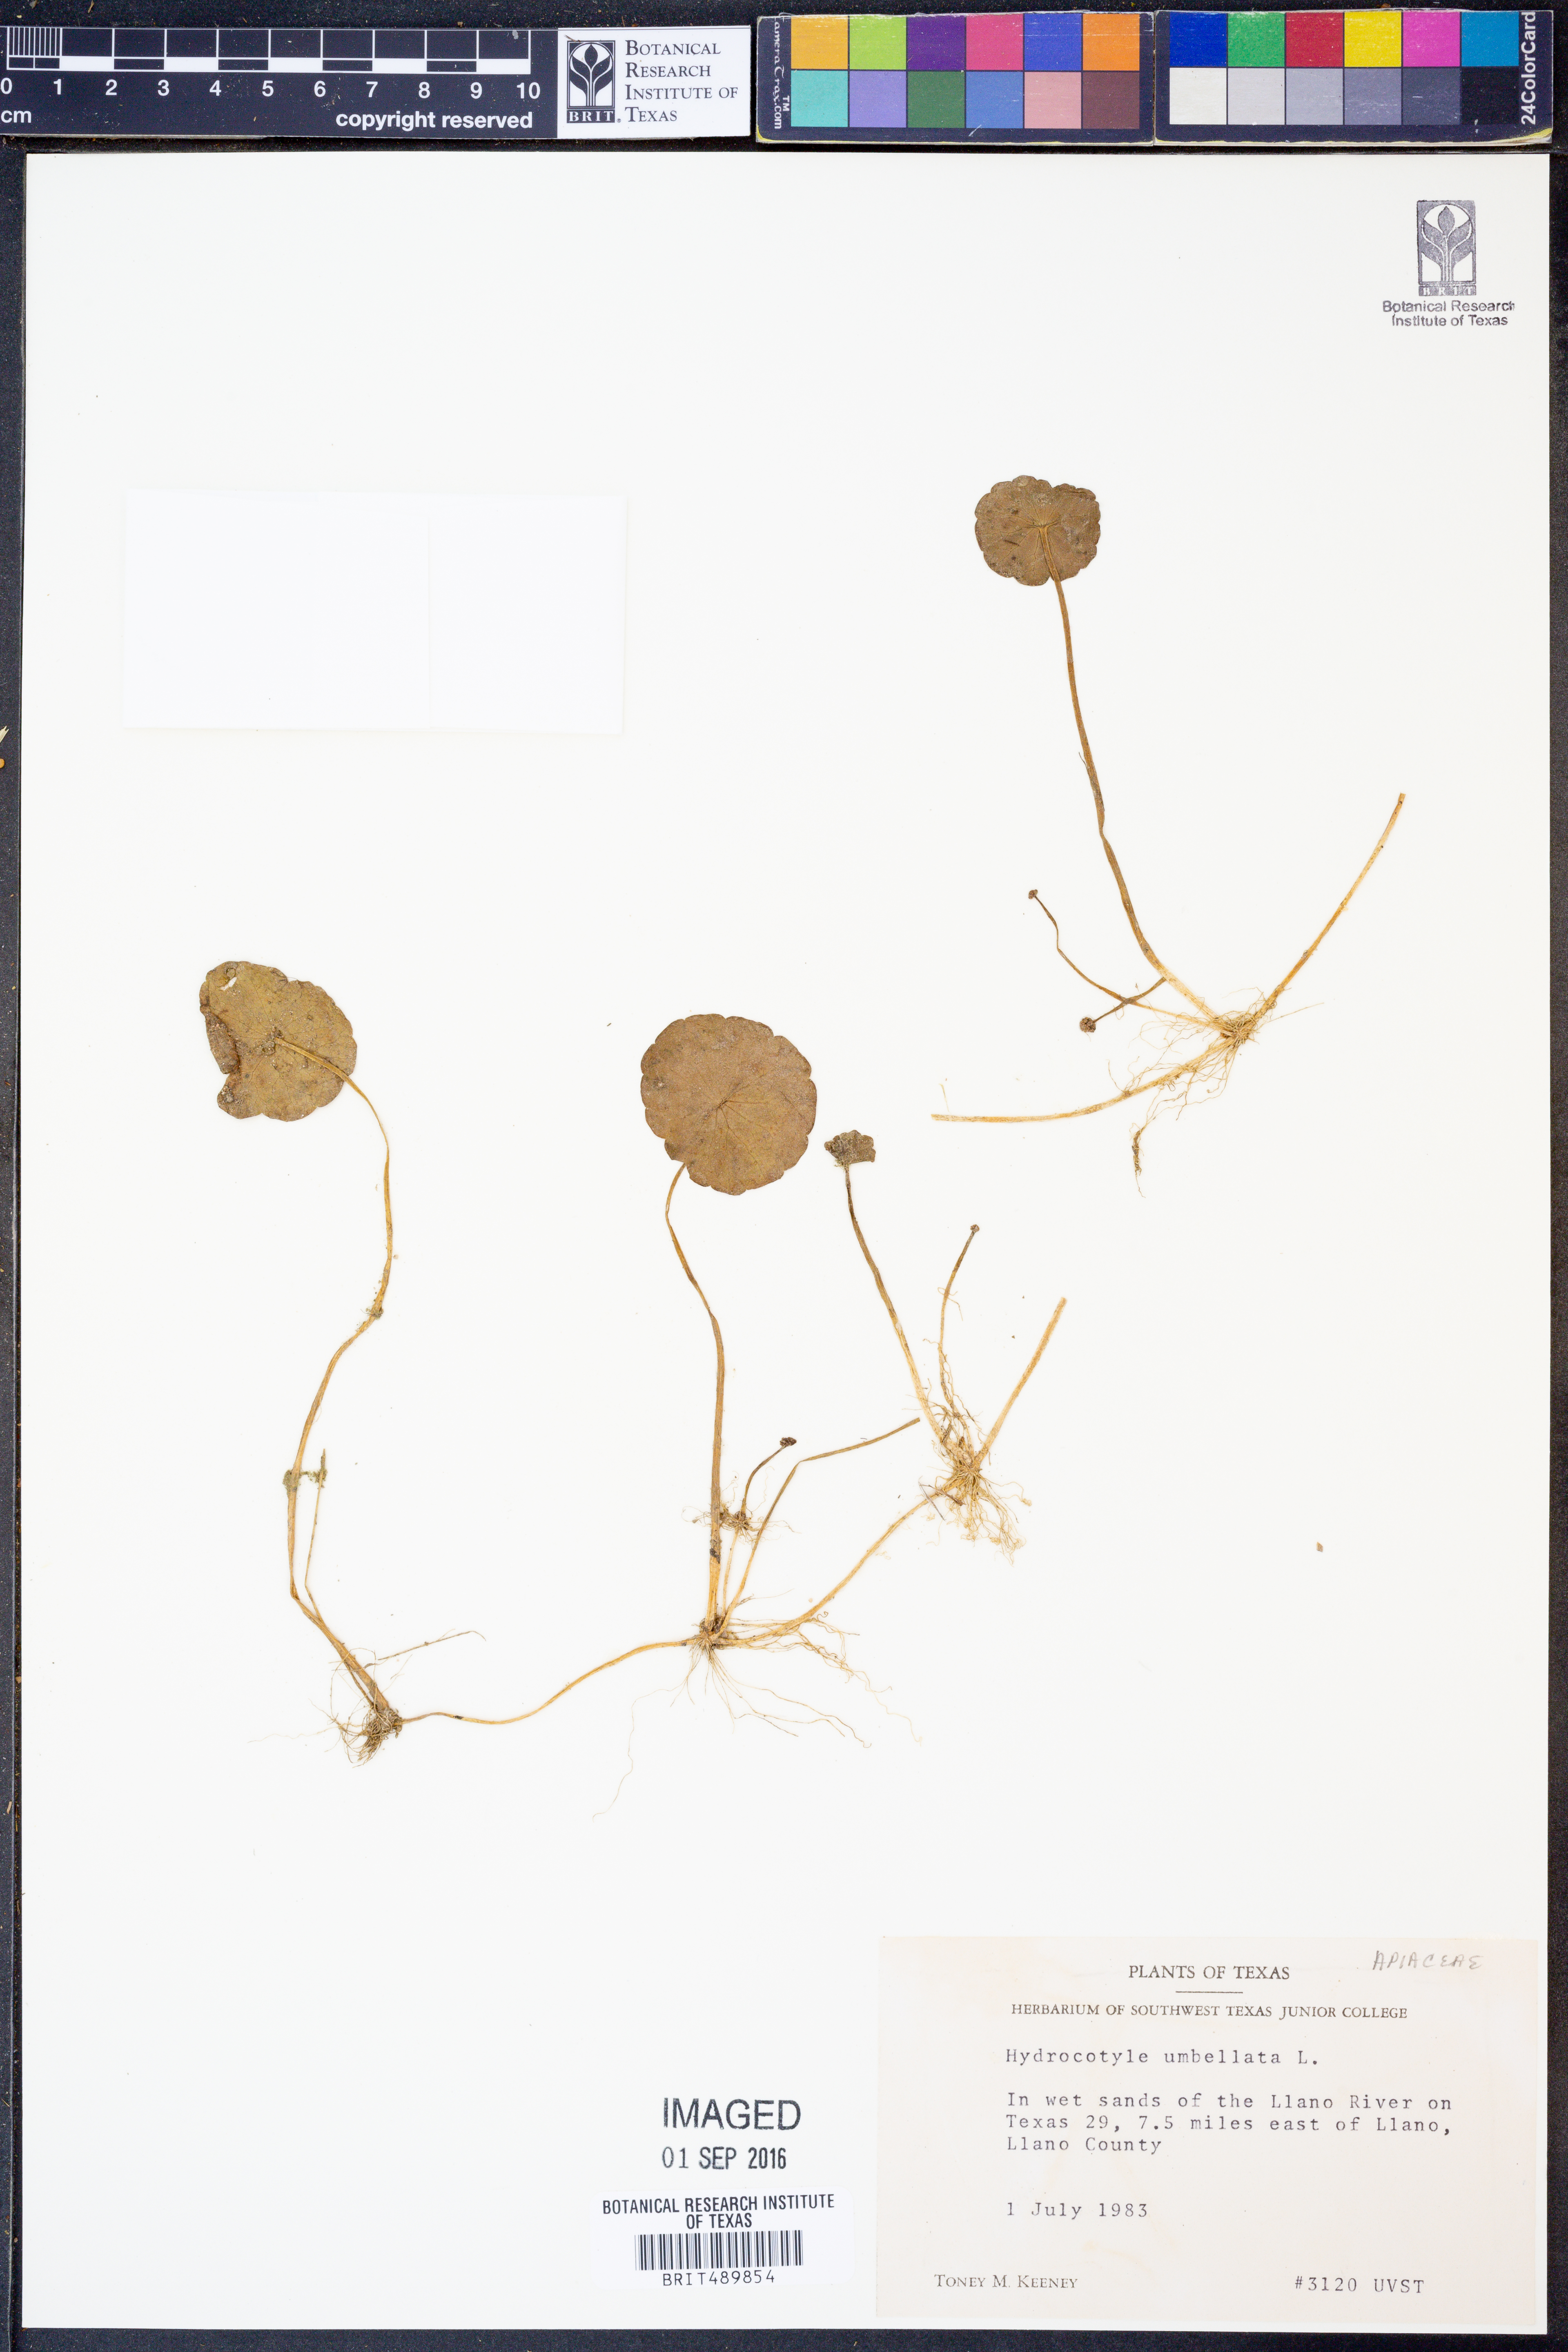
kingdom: Plantae
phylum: Tracheophyta
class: Magnoliopsida
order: Apiales
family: Araliaceae
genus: Hydrocotyle
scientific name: Hydrocotyle umbellata
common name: Water pennywort
